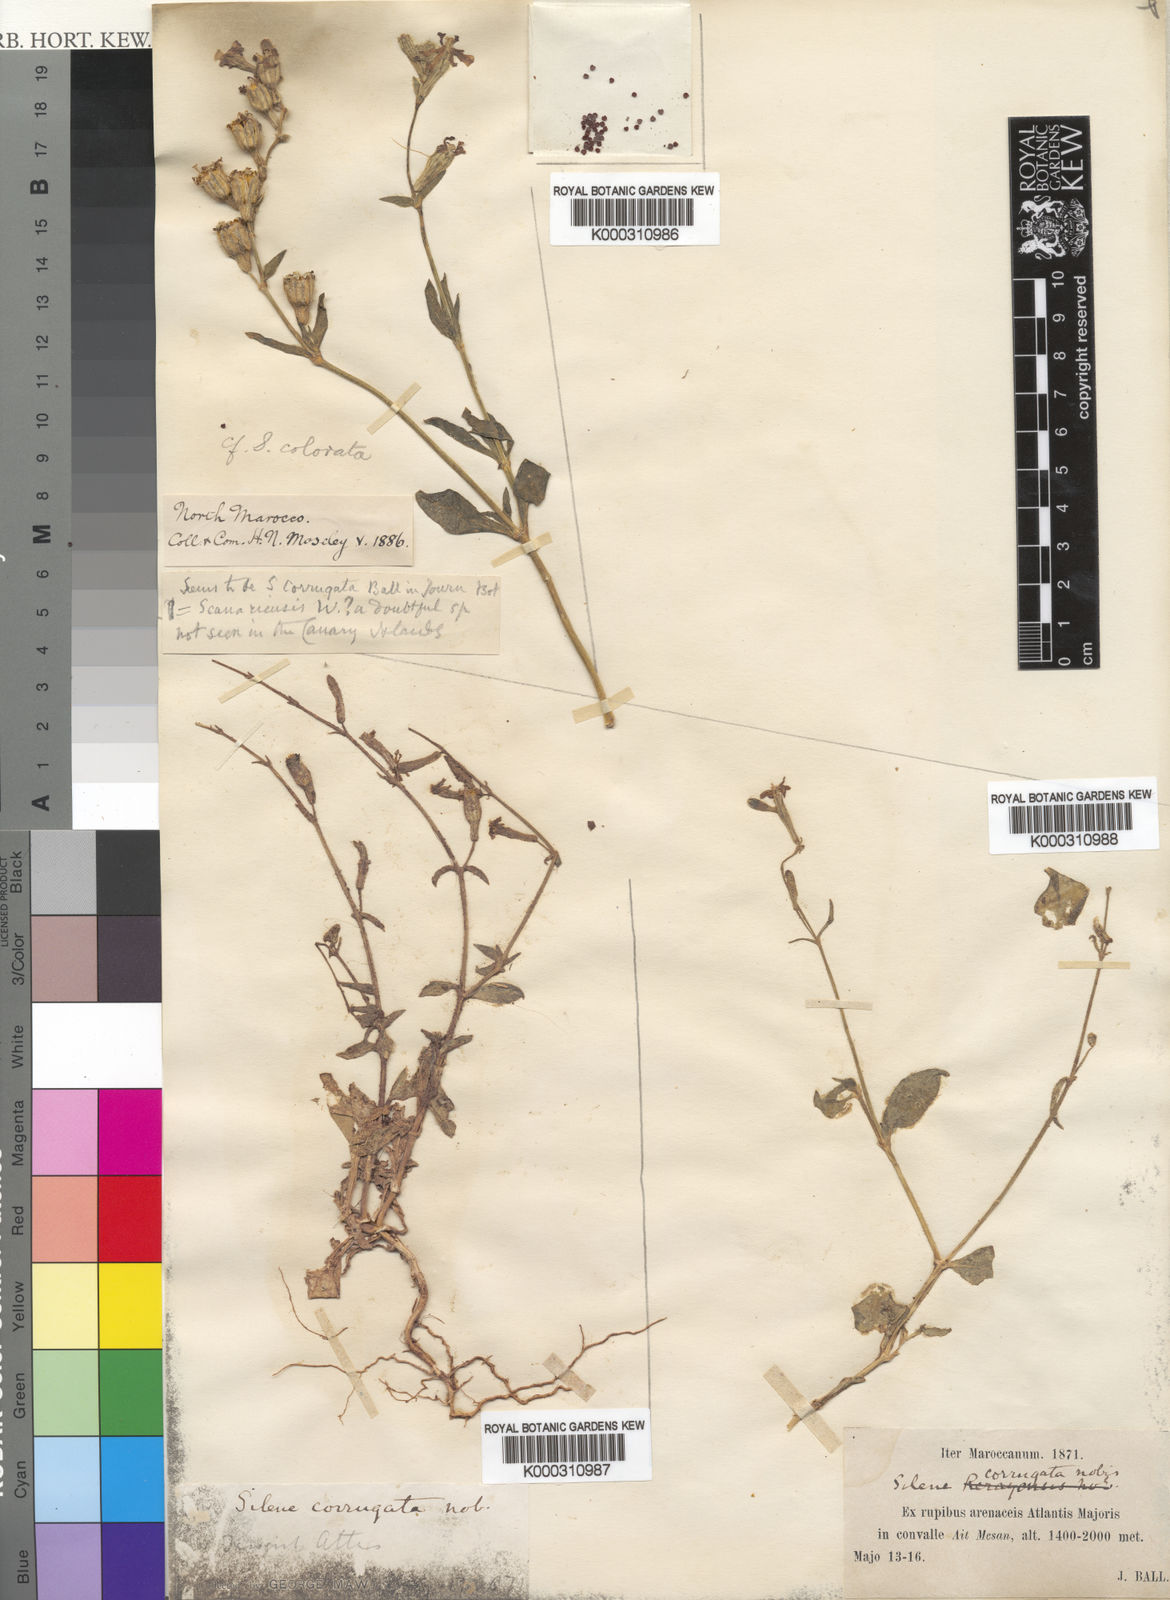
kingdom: Plantae
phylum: Tracheophyta
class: Magnoliopsida
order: Caryophyllales
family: Caryophyllaceae
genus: Silene
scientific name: Silene
